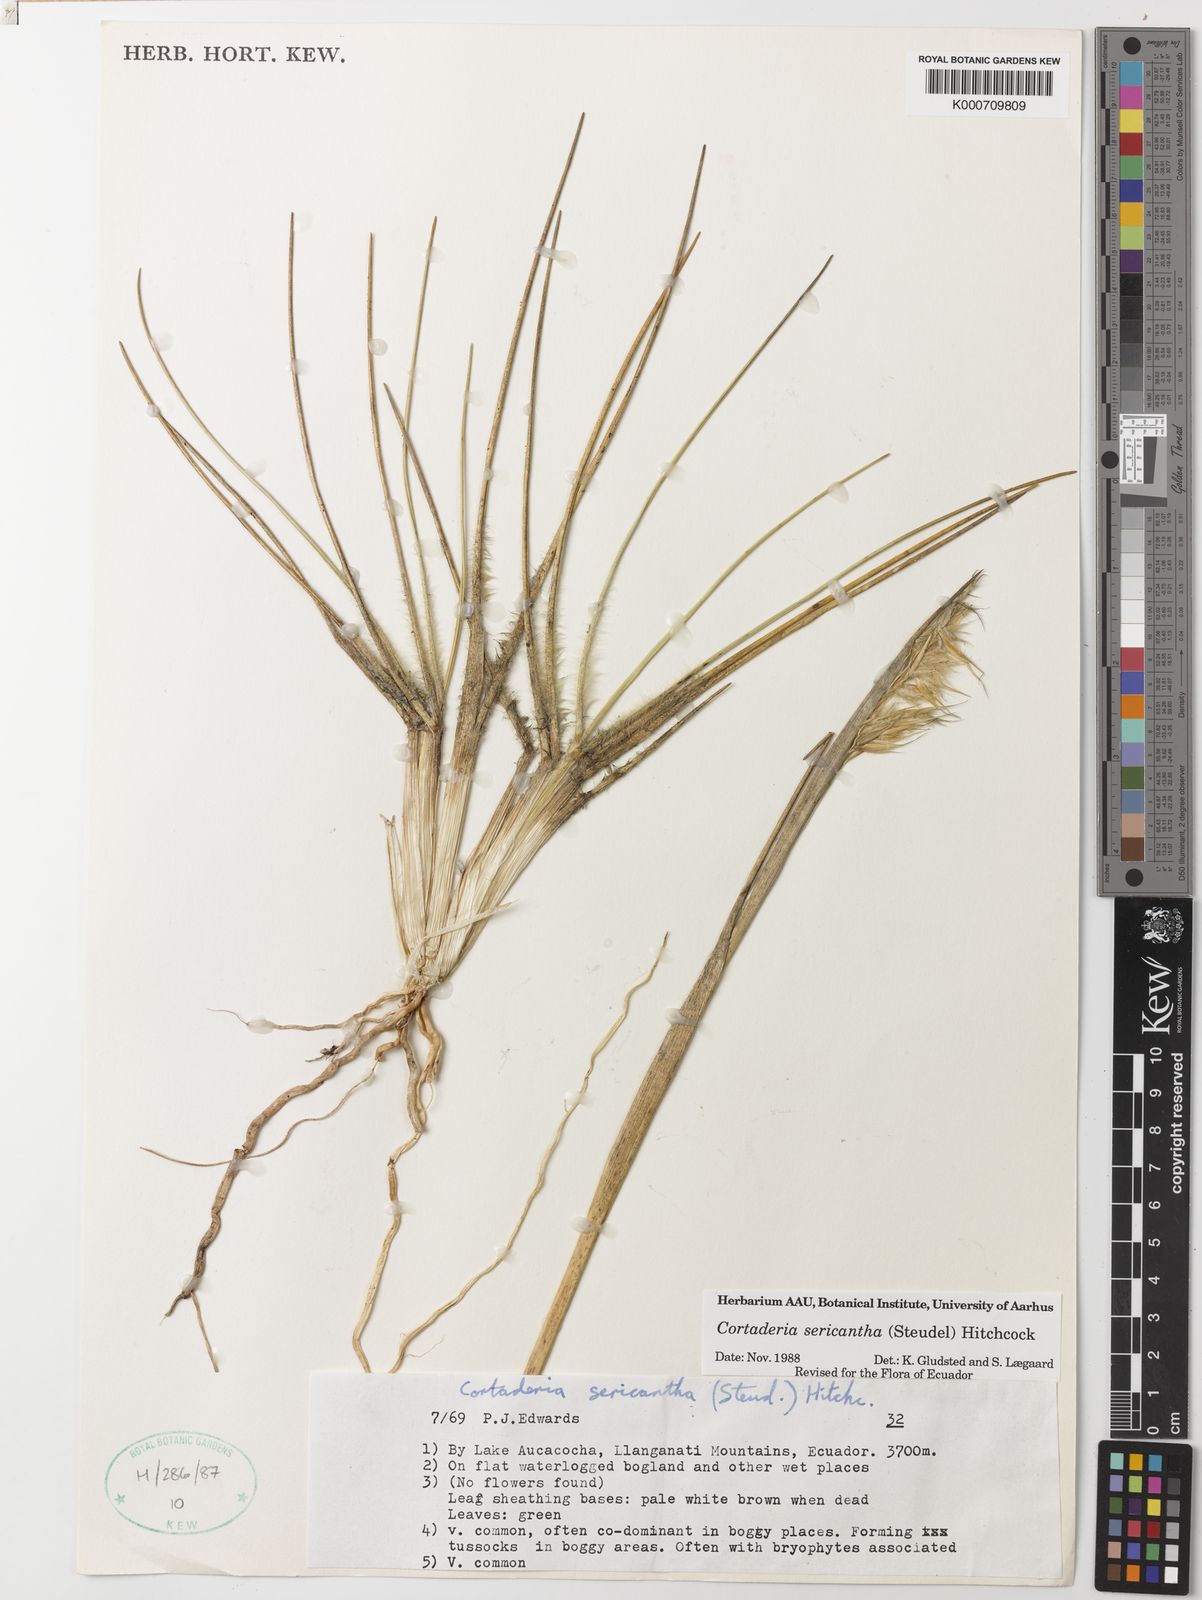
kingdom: Plantae
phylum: Tracheophyta
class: Liliopsida
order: Poales
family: Poaceae
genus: Cortaderia
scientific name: Cortaderia sericantha
